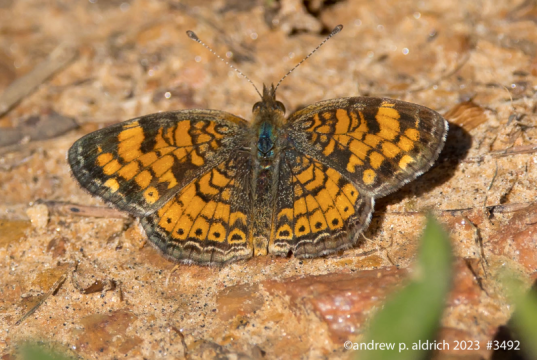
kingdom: Animalia
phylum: Arthropoda
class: Insecta
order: Lepidoptera
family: Nymphalidae
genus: Phyciodes
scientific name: Phyciodes tharos
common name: Pearl Crescent
